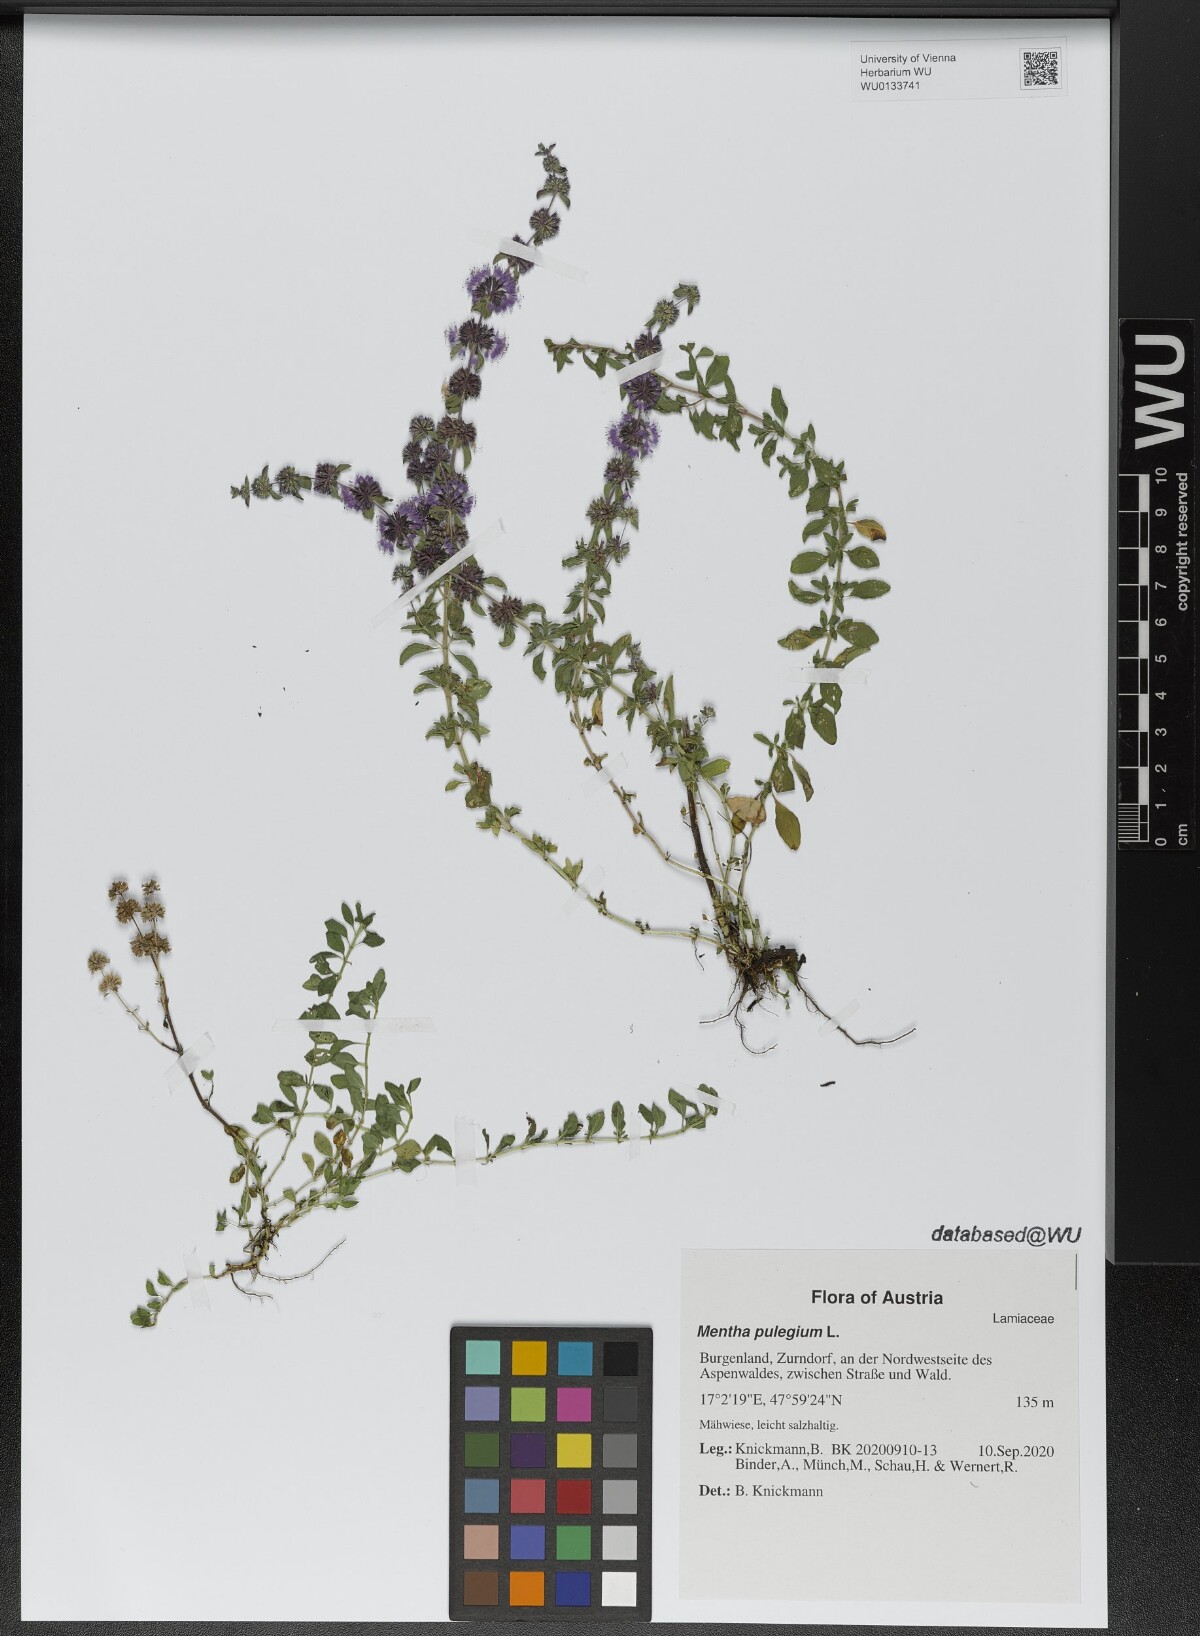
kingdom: Plantae
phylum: Tracheophyta
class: Magnoliopsida
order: Lamiales
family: Lamiaceae
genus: Mentha
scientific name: Mentha pulegium
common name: Pennyroyal
